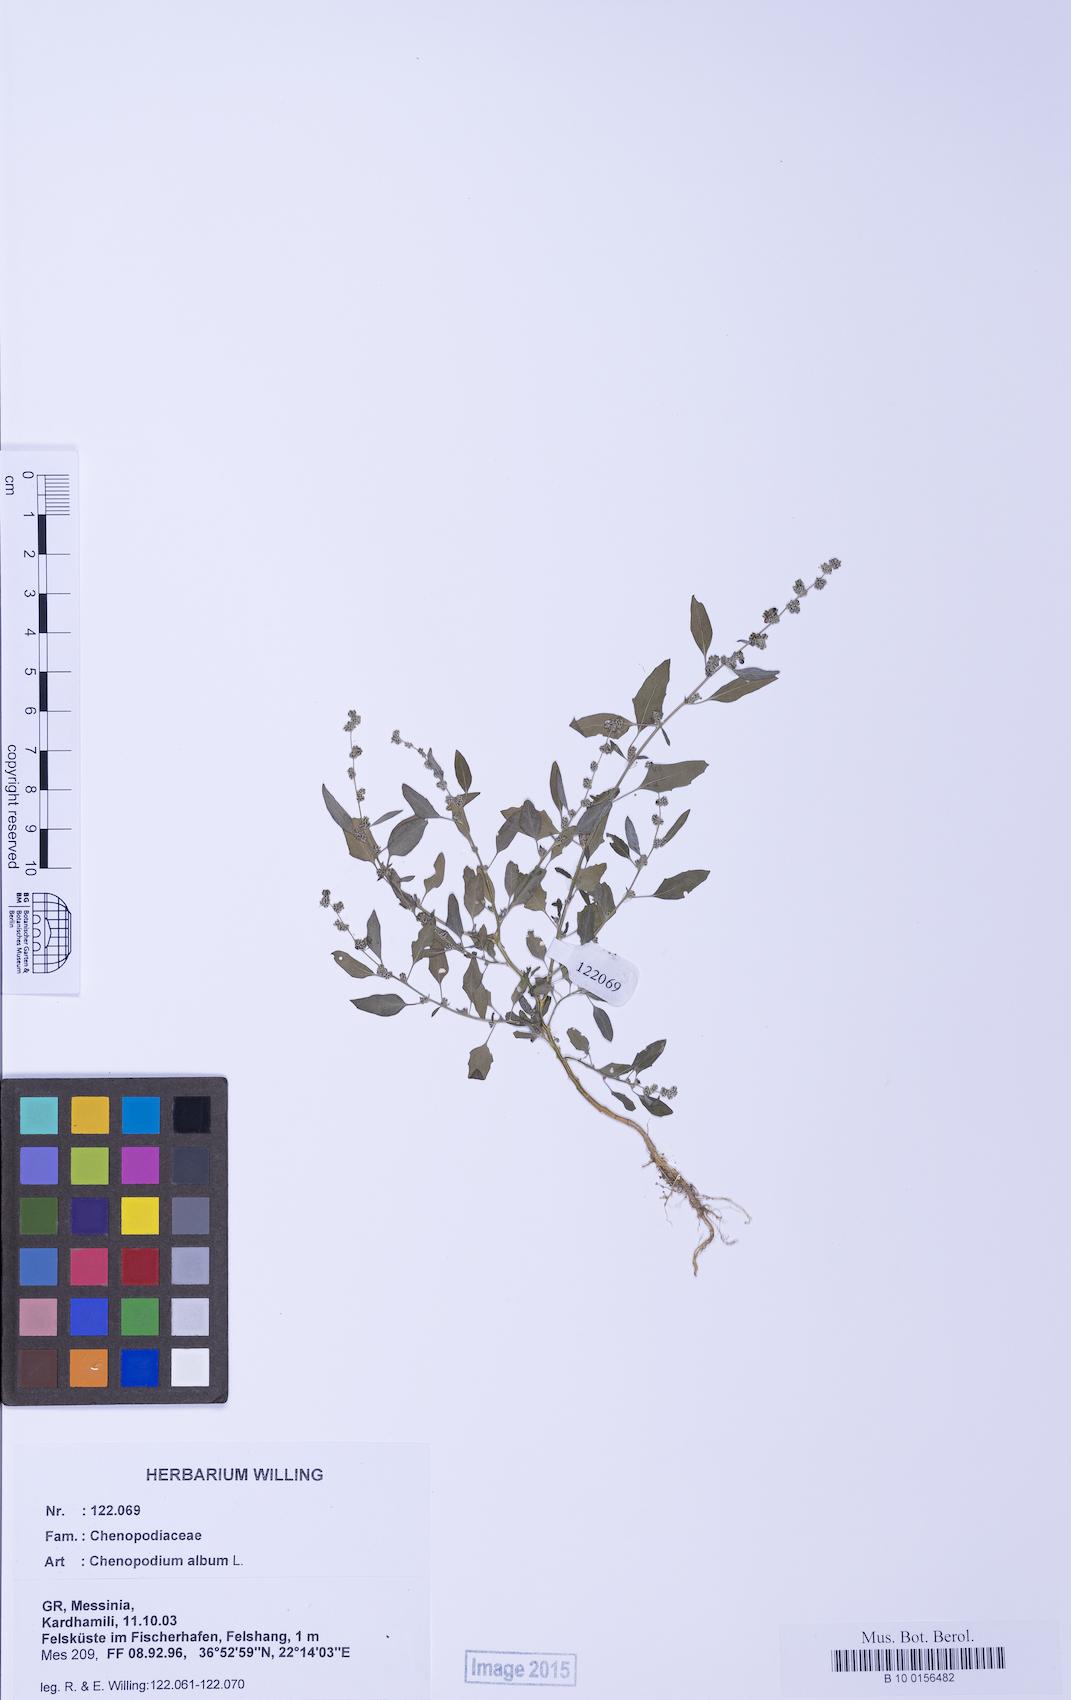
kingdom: Plantae
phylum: Tracheophyta
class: Magnoliopsida
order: Caryophyllales
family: Amaranthaceae
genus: Chenopodium
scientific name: Chenopodium striatiforme
